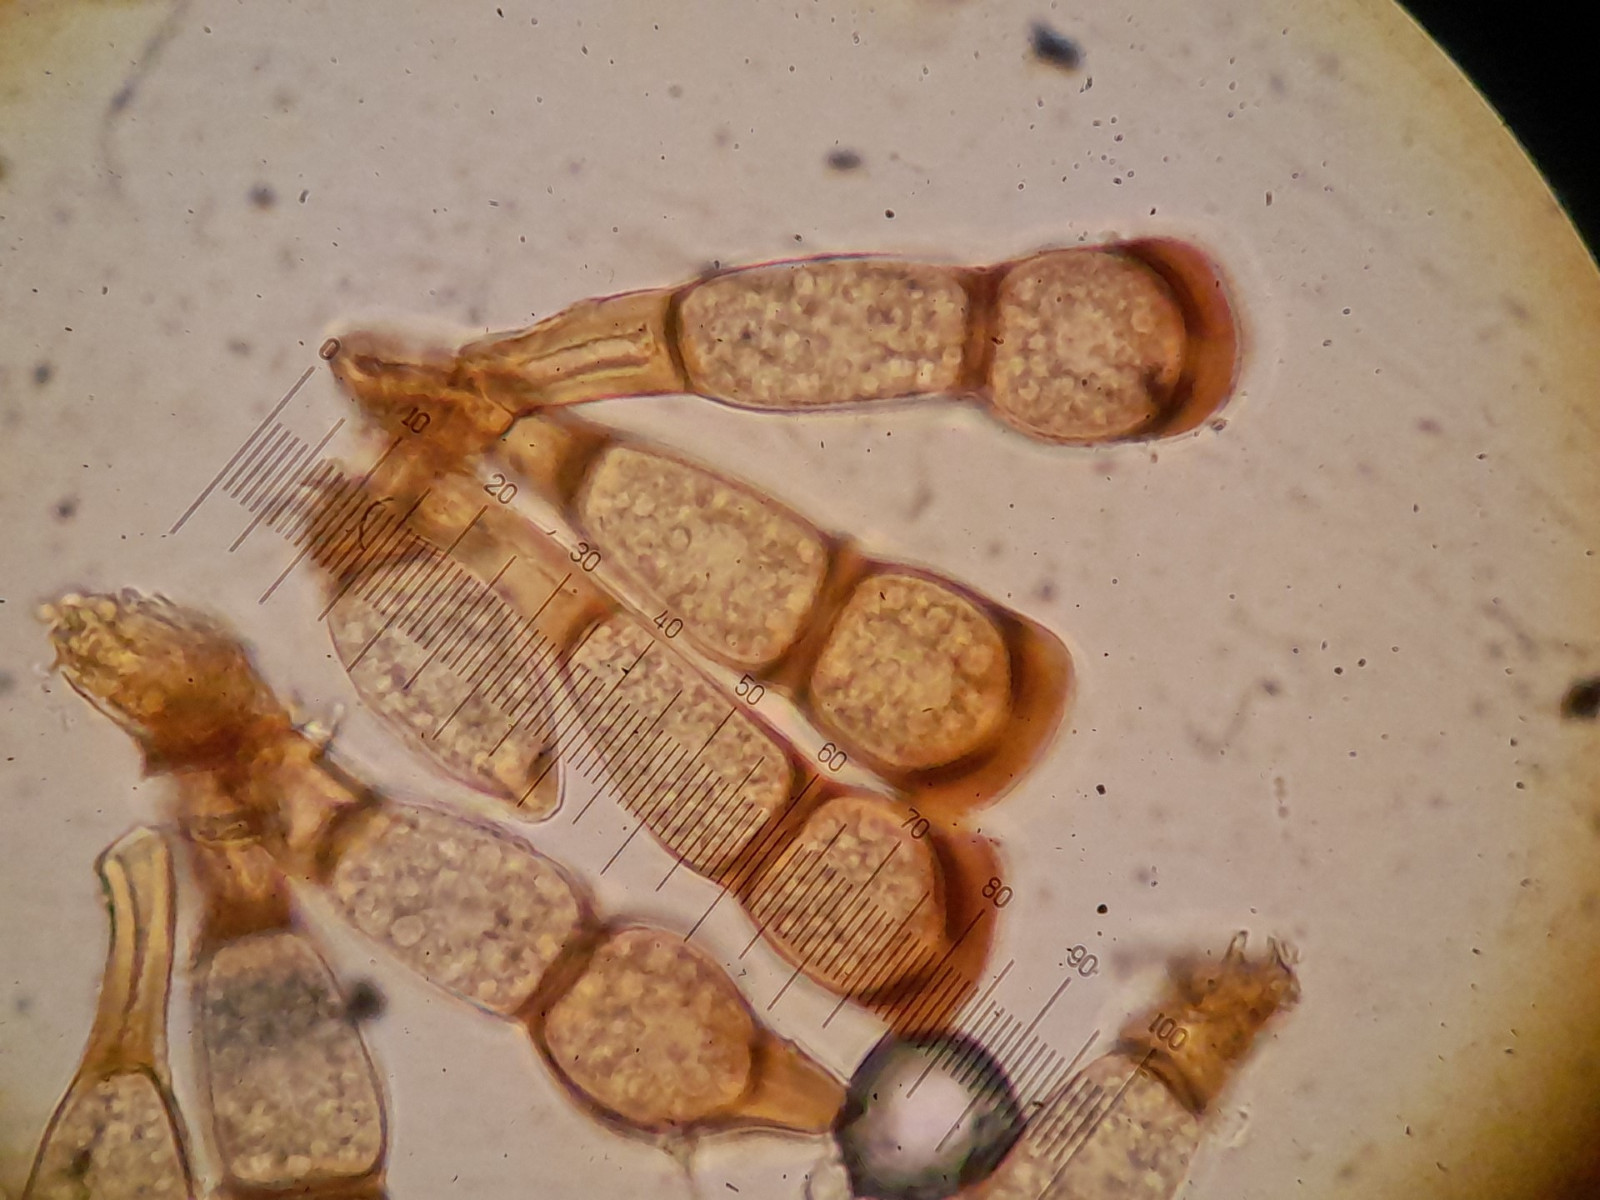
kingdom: Fungi
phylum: Basidiomycota
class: Pucciniomycetes
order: Pucciniales
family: Pucciniaceae
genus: Puccinia
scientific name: Puccinia
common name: tvecellerust
